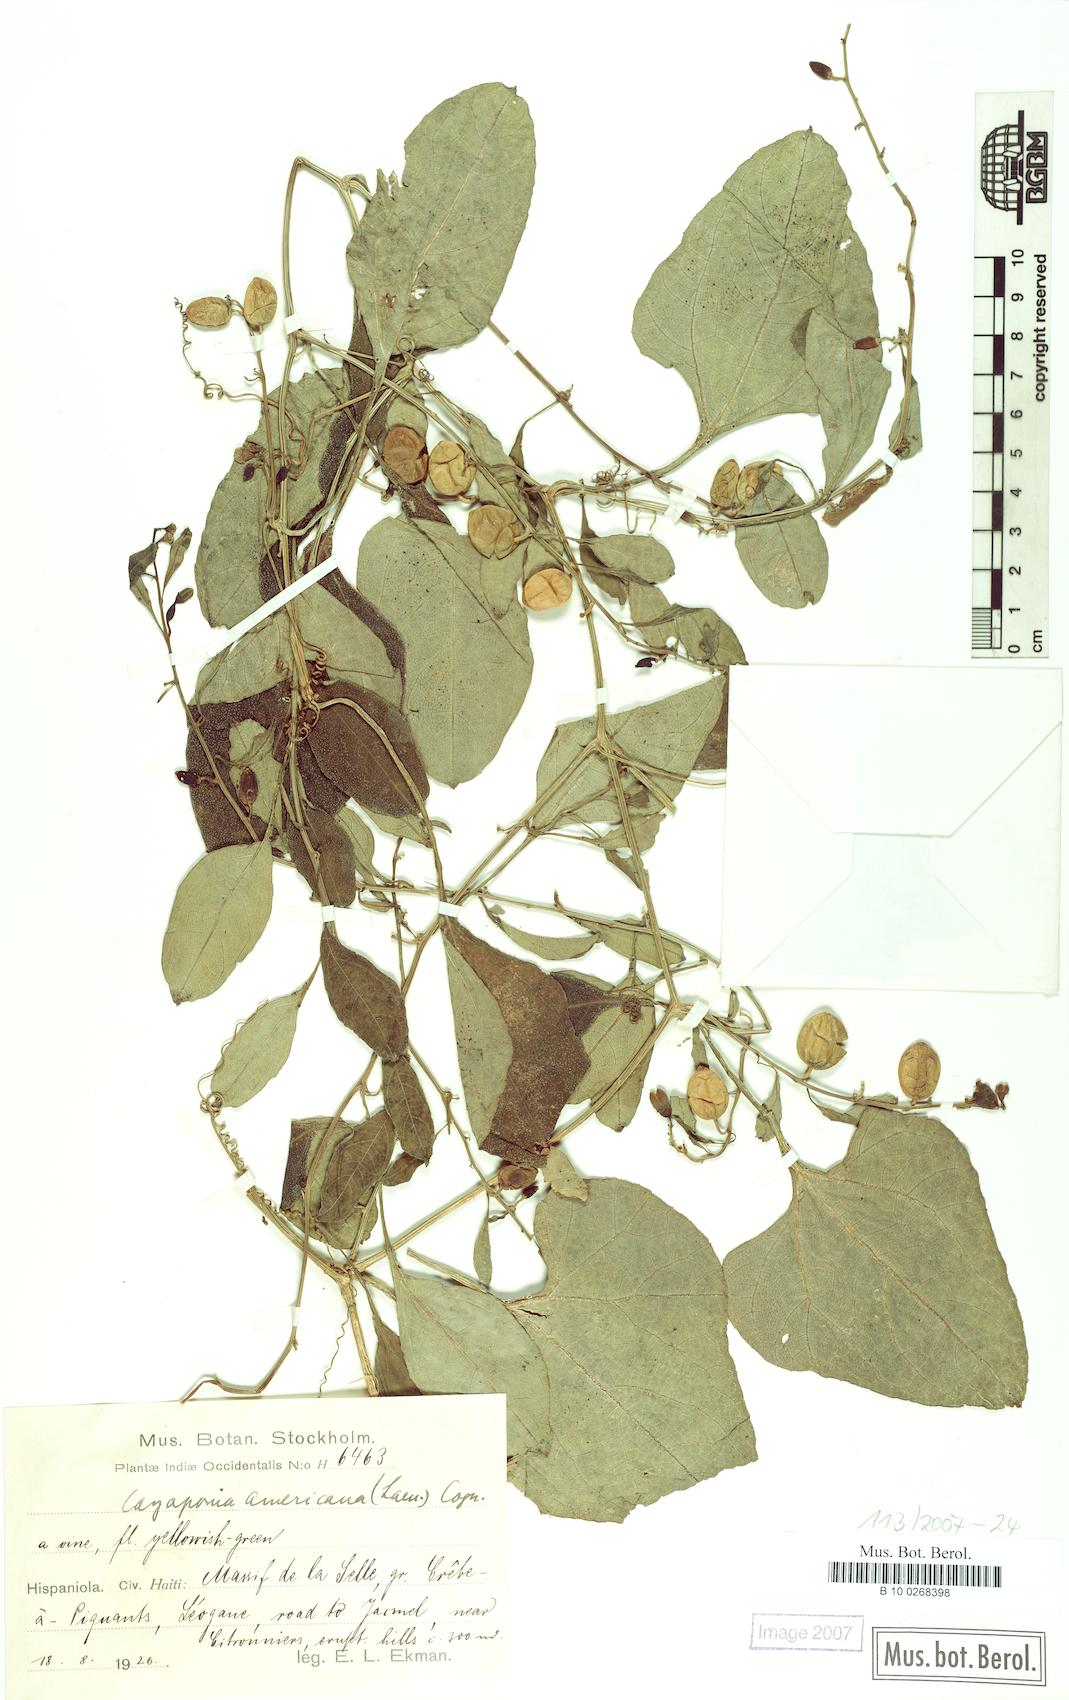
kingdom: Plantae
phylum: Tracheophyta
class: Magnoliopsida
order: Cucurbitales
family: Cucurbitaceae
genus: Cayaponia
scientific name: Cayaponia americana
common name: American melonleaf
